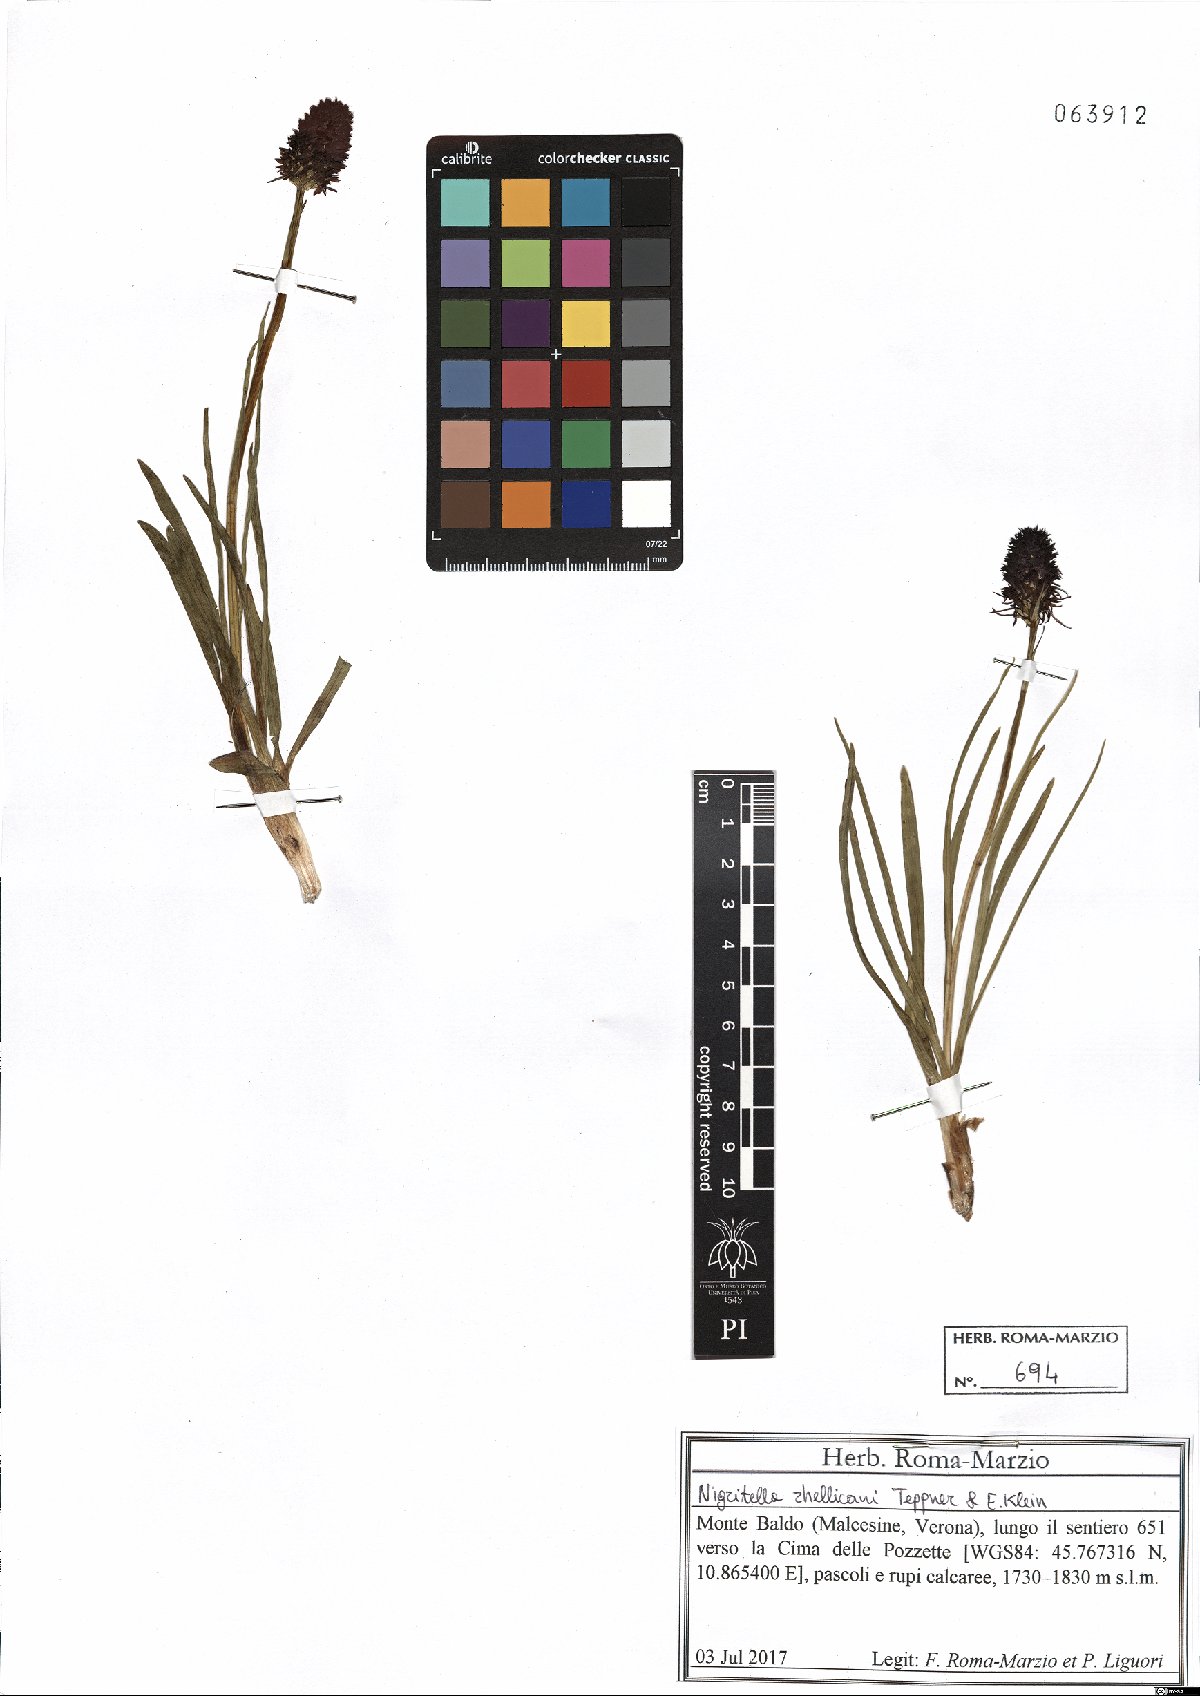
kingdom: Plantae
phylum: Tracheophyta
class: Liliopsida
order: Asparagales
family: Orchidaceae
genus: Gymnadenia
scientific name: Gymnadenia rhellicani
